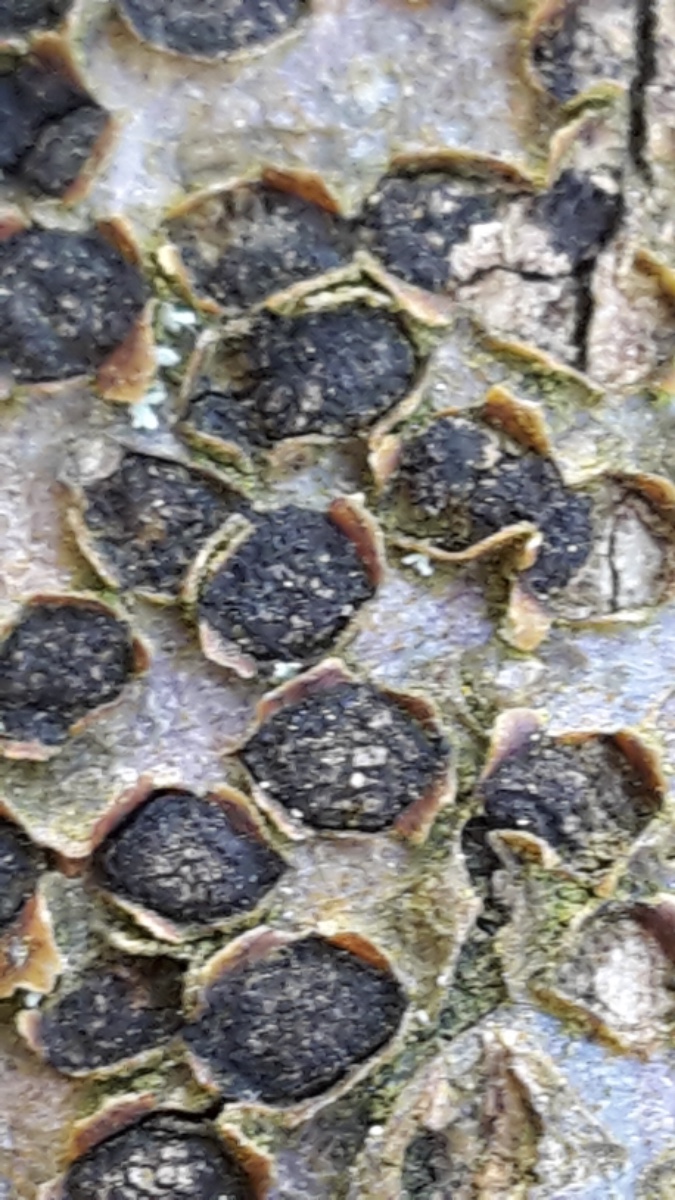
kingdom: Fungi
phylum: Ascomycota
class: Sordariomycetes
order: Xylariales
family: Diatrypaceae
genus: Diatrype
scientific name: Diatrype disciformis
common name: kant-kulskorpe
